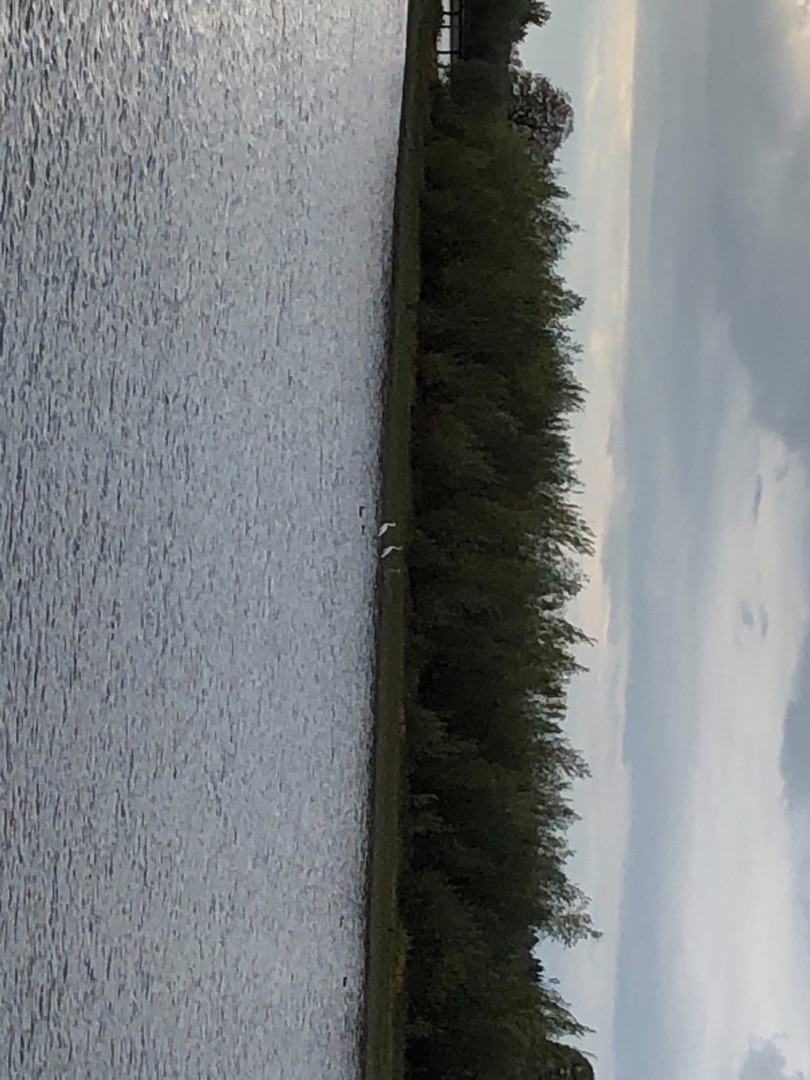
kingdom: Animalia
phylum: Chordata
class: Aves
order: Pelecaniformes
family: Ardeidae
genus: Ardea
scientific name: Ardea alba
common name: Sølvhejre
